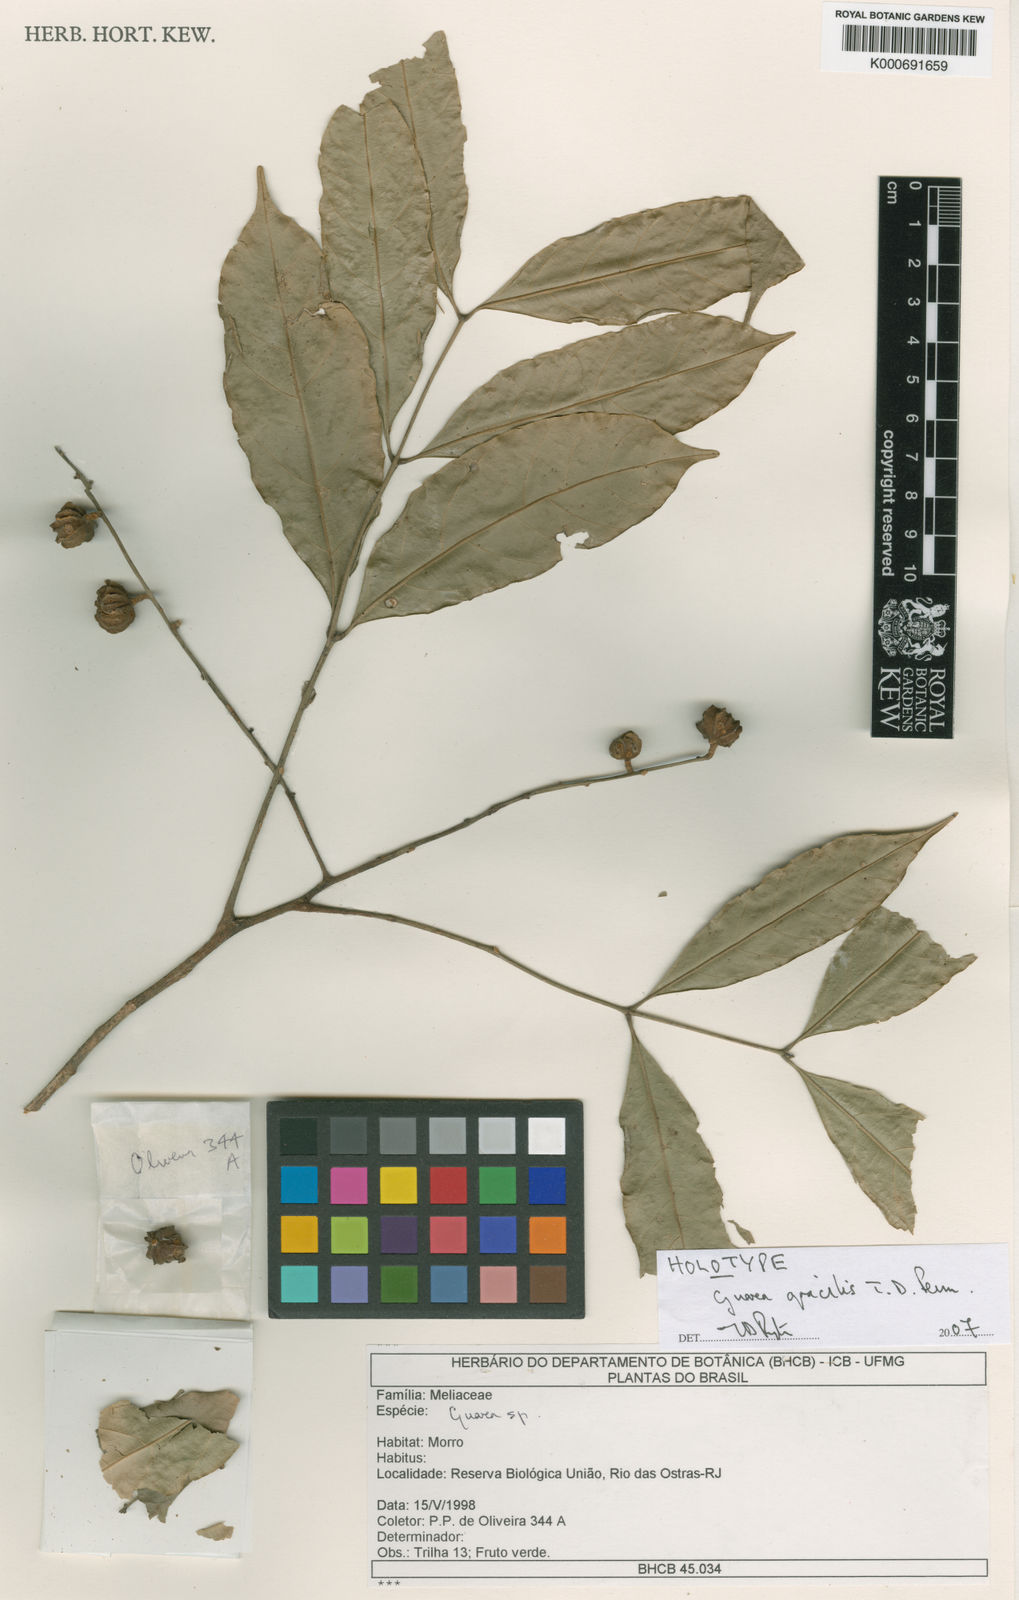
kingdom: Plantae
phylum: Tracheophyta
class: Magnoliopsida
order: Sapindales
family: Meliaceae
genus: Guarea
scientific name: Guarea gracilis
